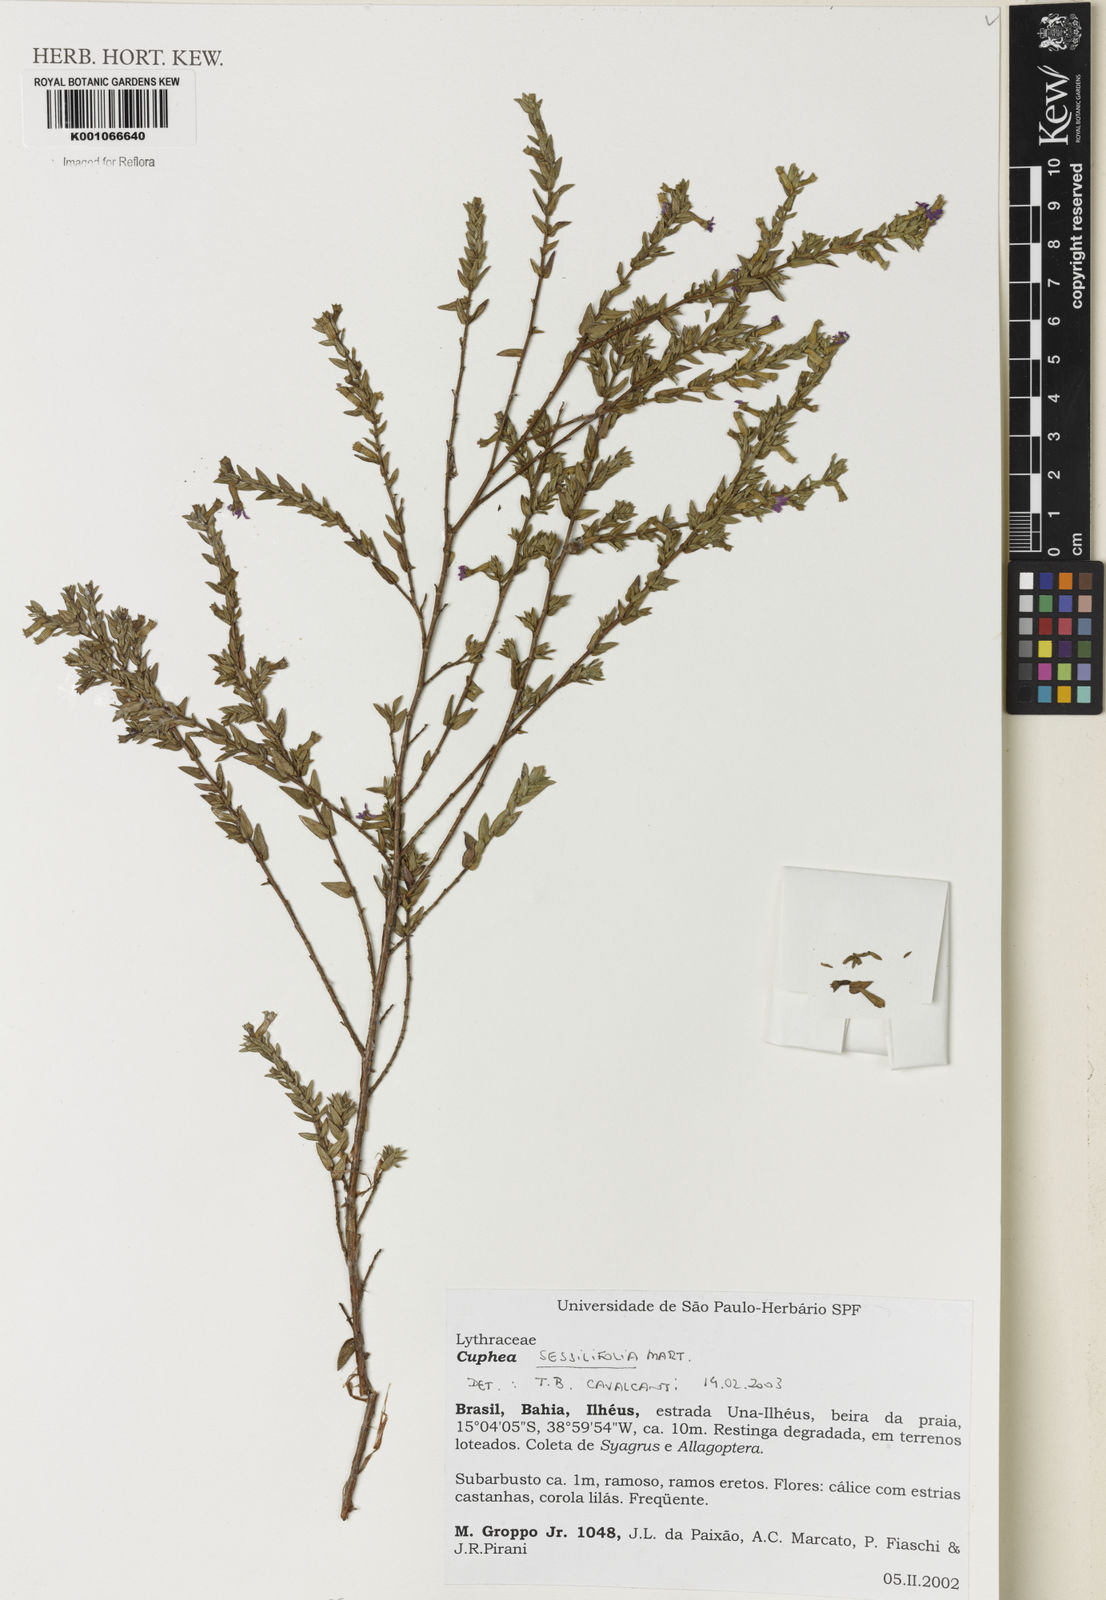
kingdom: Plantae
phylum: Tracheophyta
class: Magnoliopsida
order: Myrtales
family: Lythraceae
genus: Cuphea
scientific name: Cuphea
